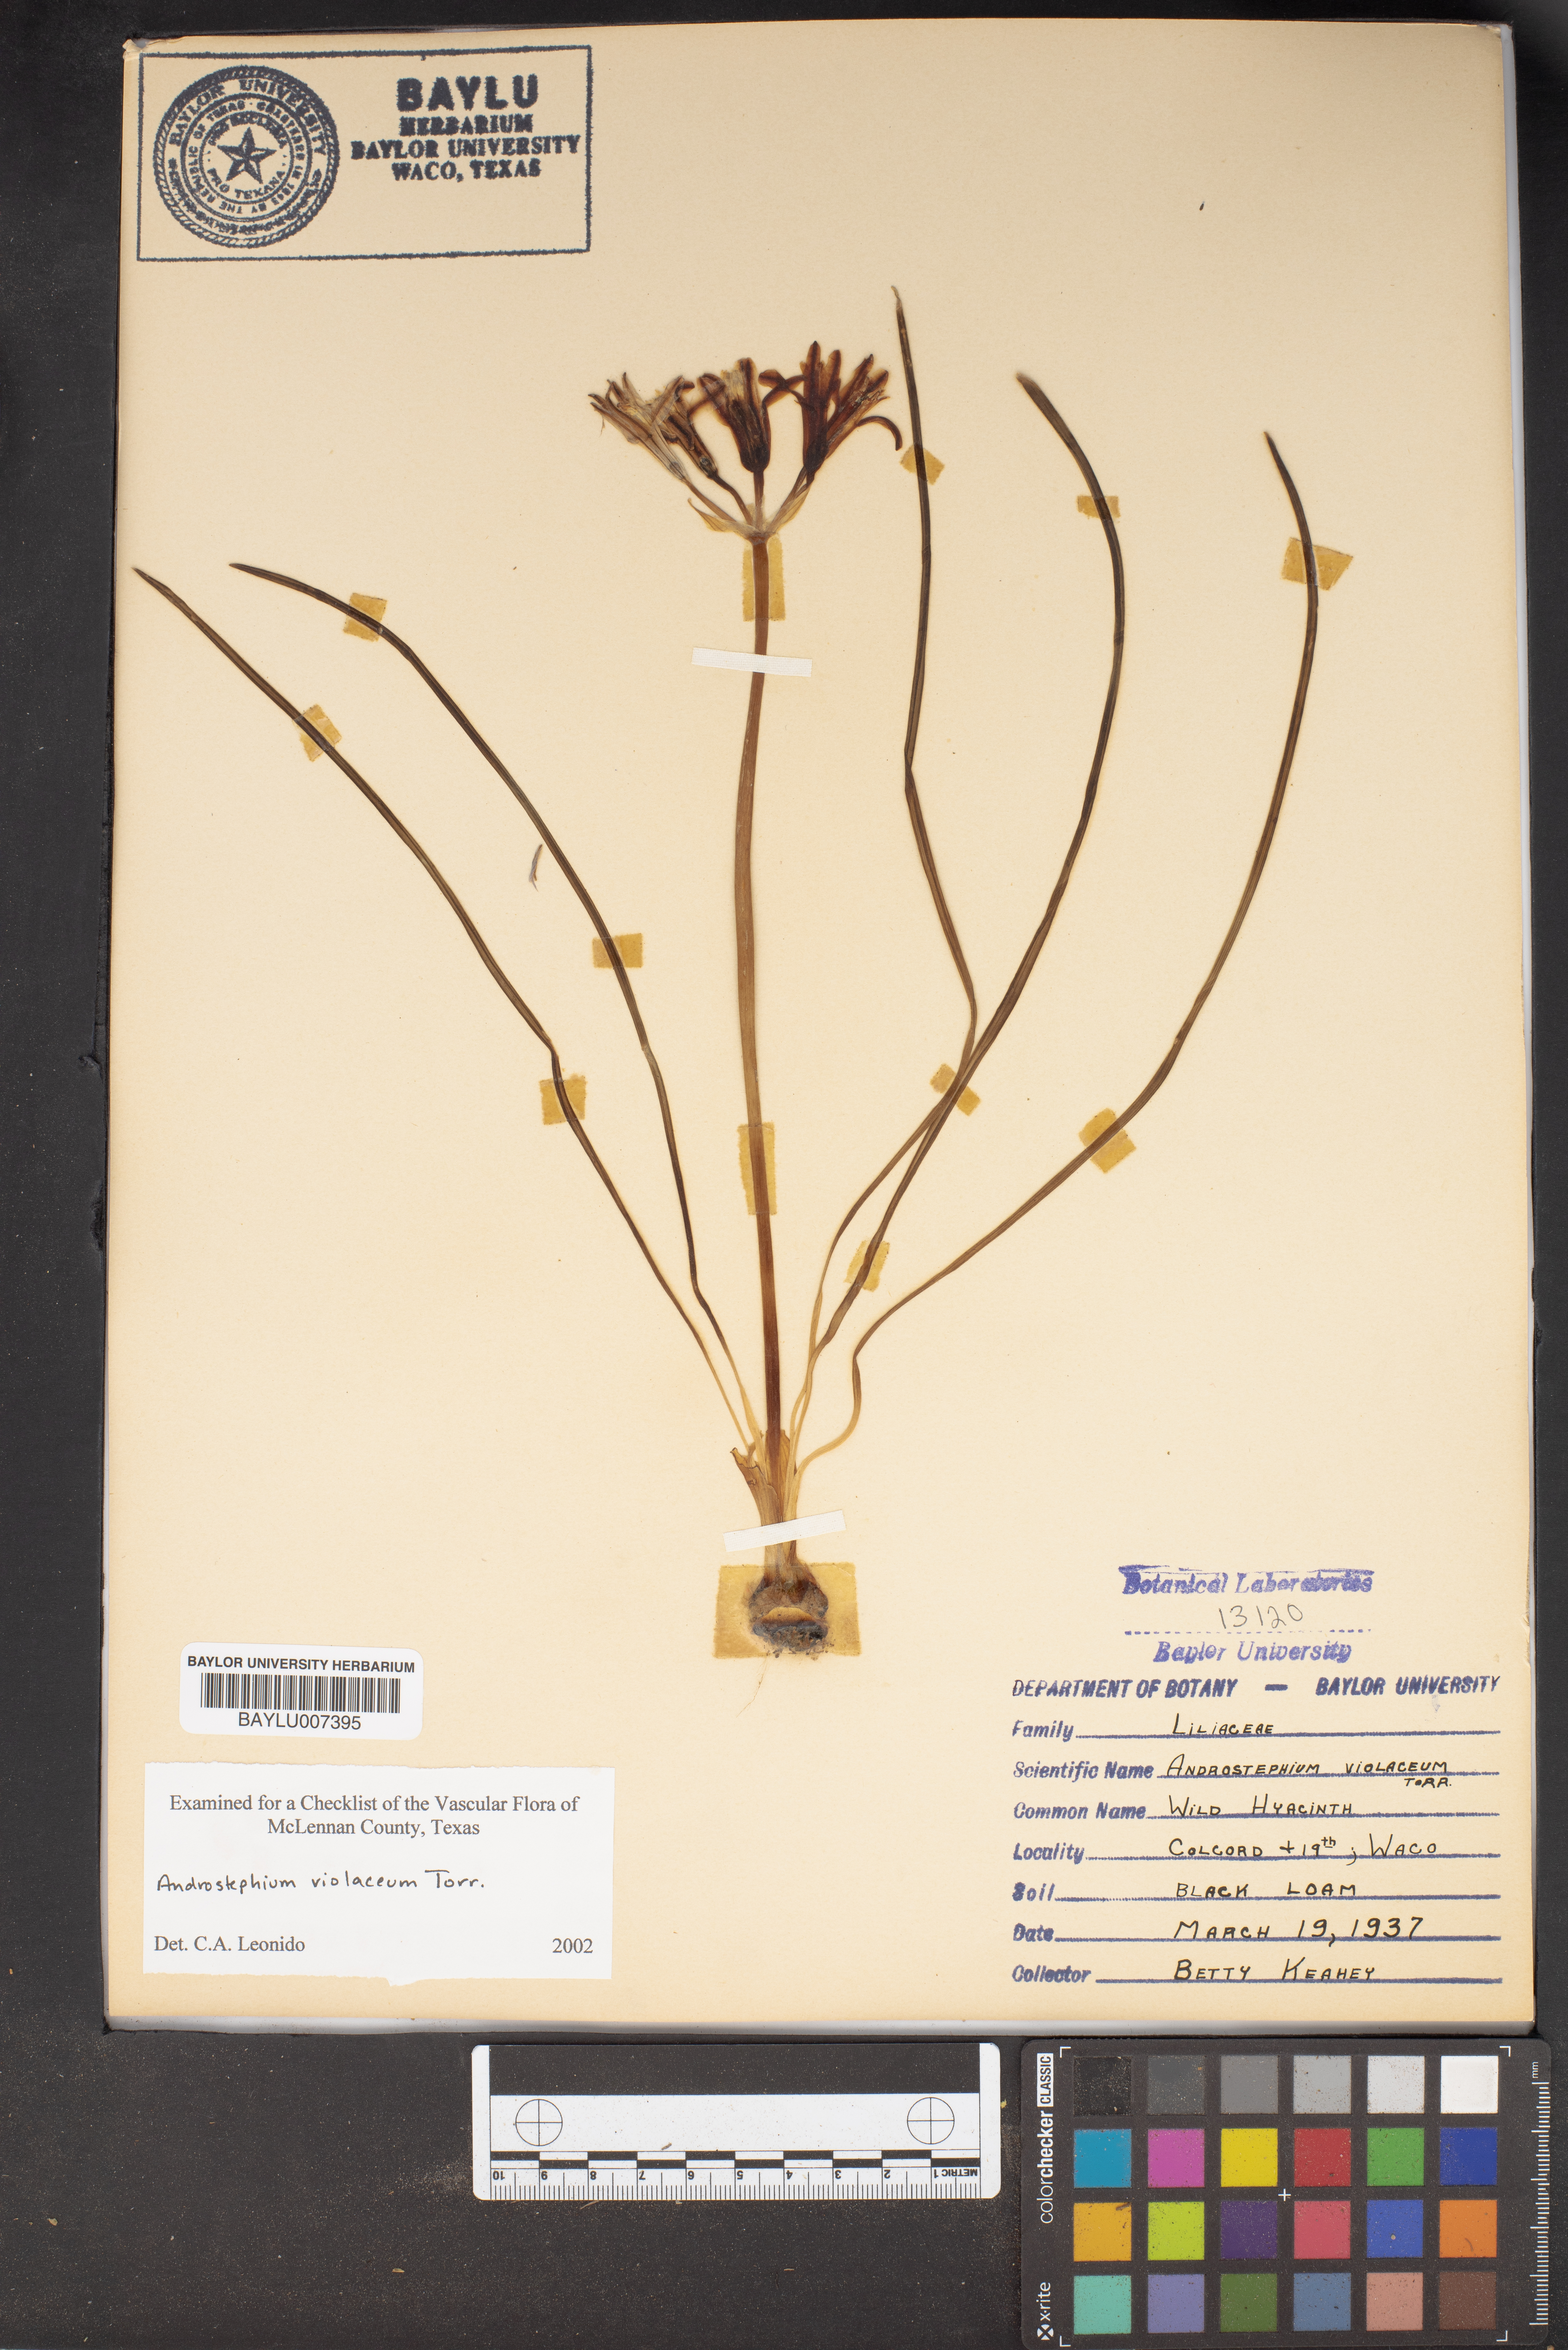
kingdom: Plantae
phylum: Tracheophyta
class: Liliopsida
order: Asparagales
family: Asparagaceae
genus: Androstephium
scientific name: Androstephium coeruleum
